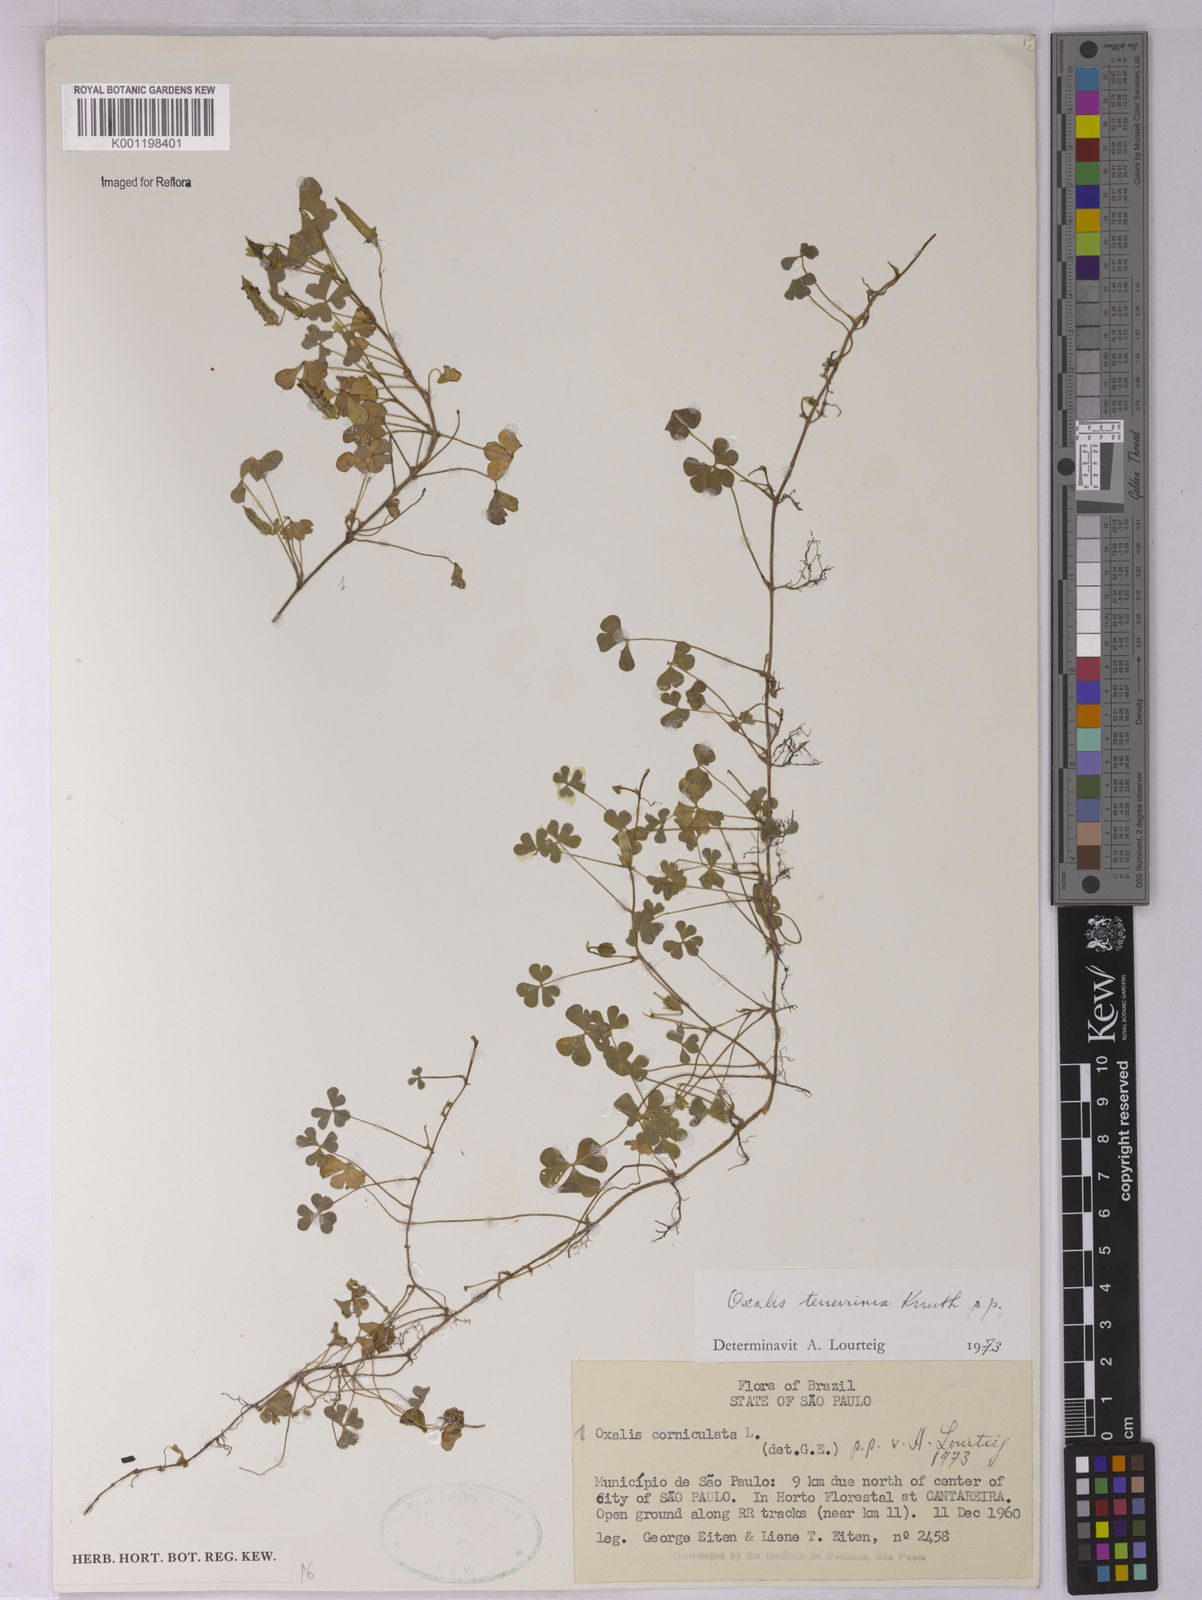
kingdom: Plantae
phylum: Tracheophyta
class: Magnoliopsida
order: Oxalidales
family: Oxalidaceae
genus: Oxalis
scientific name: Oxalis tenerrima
